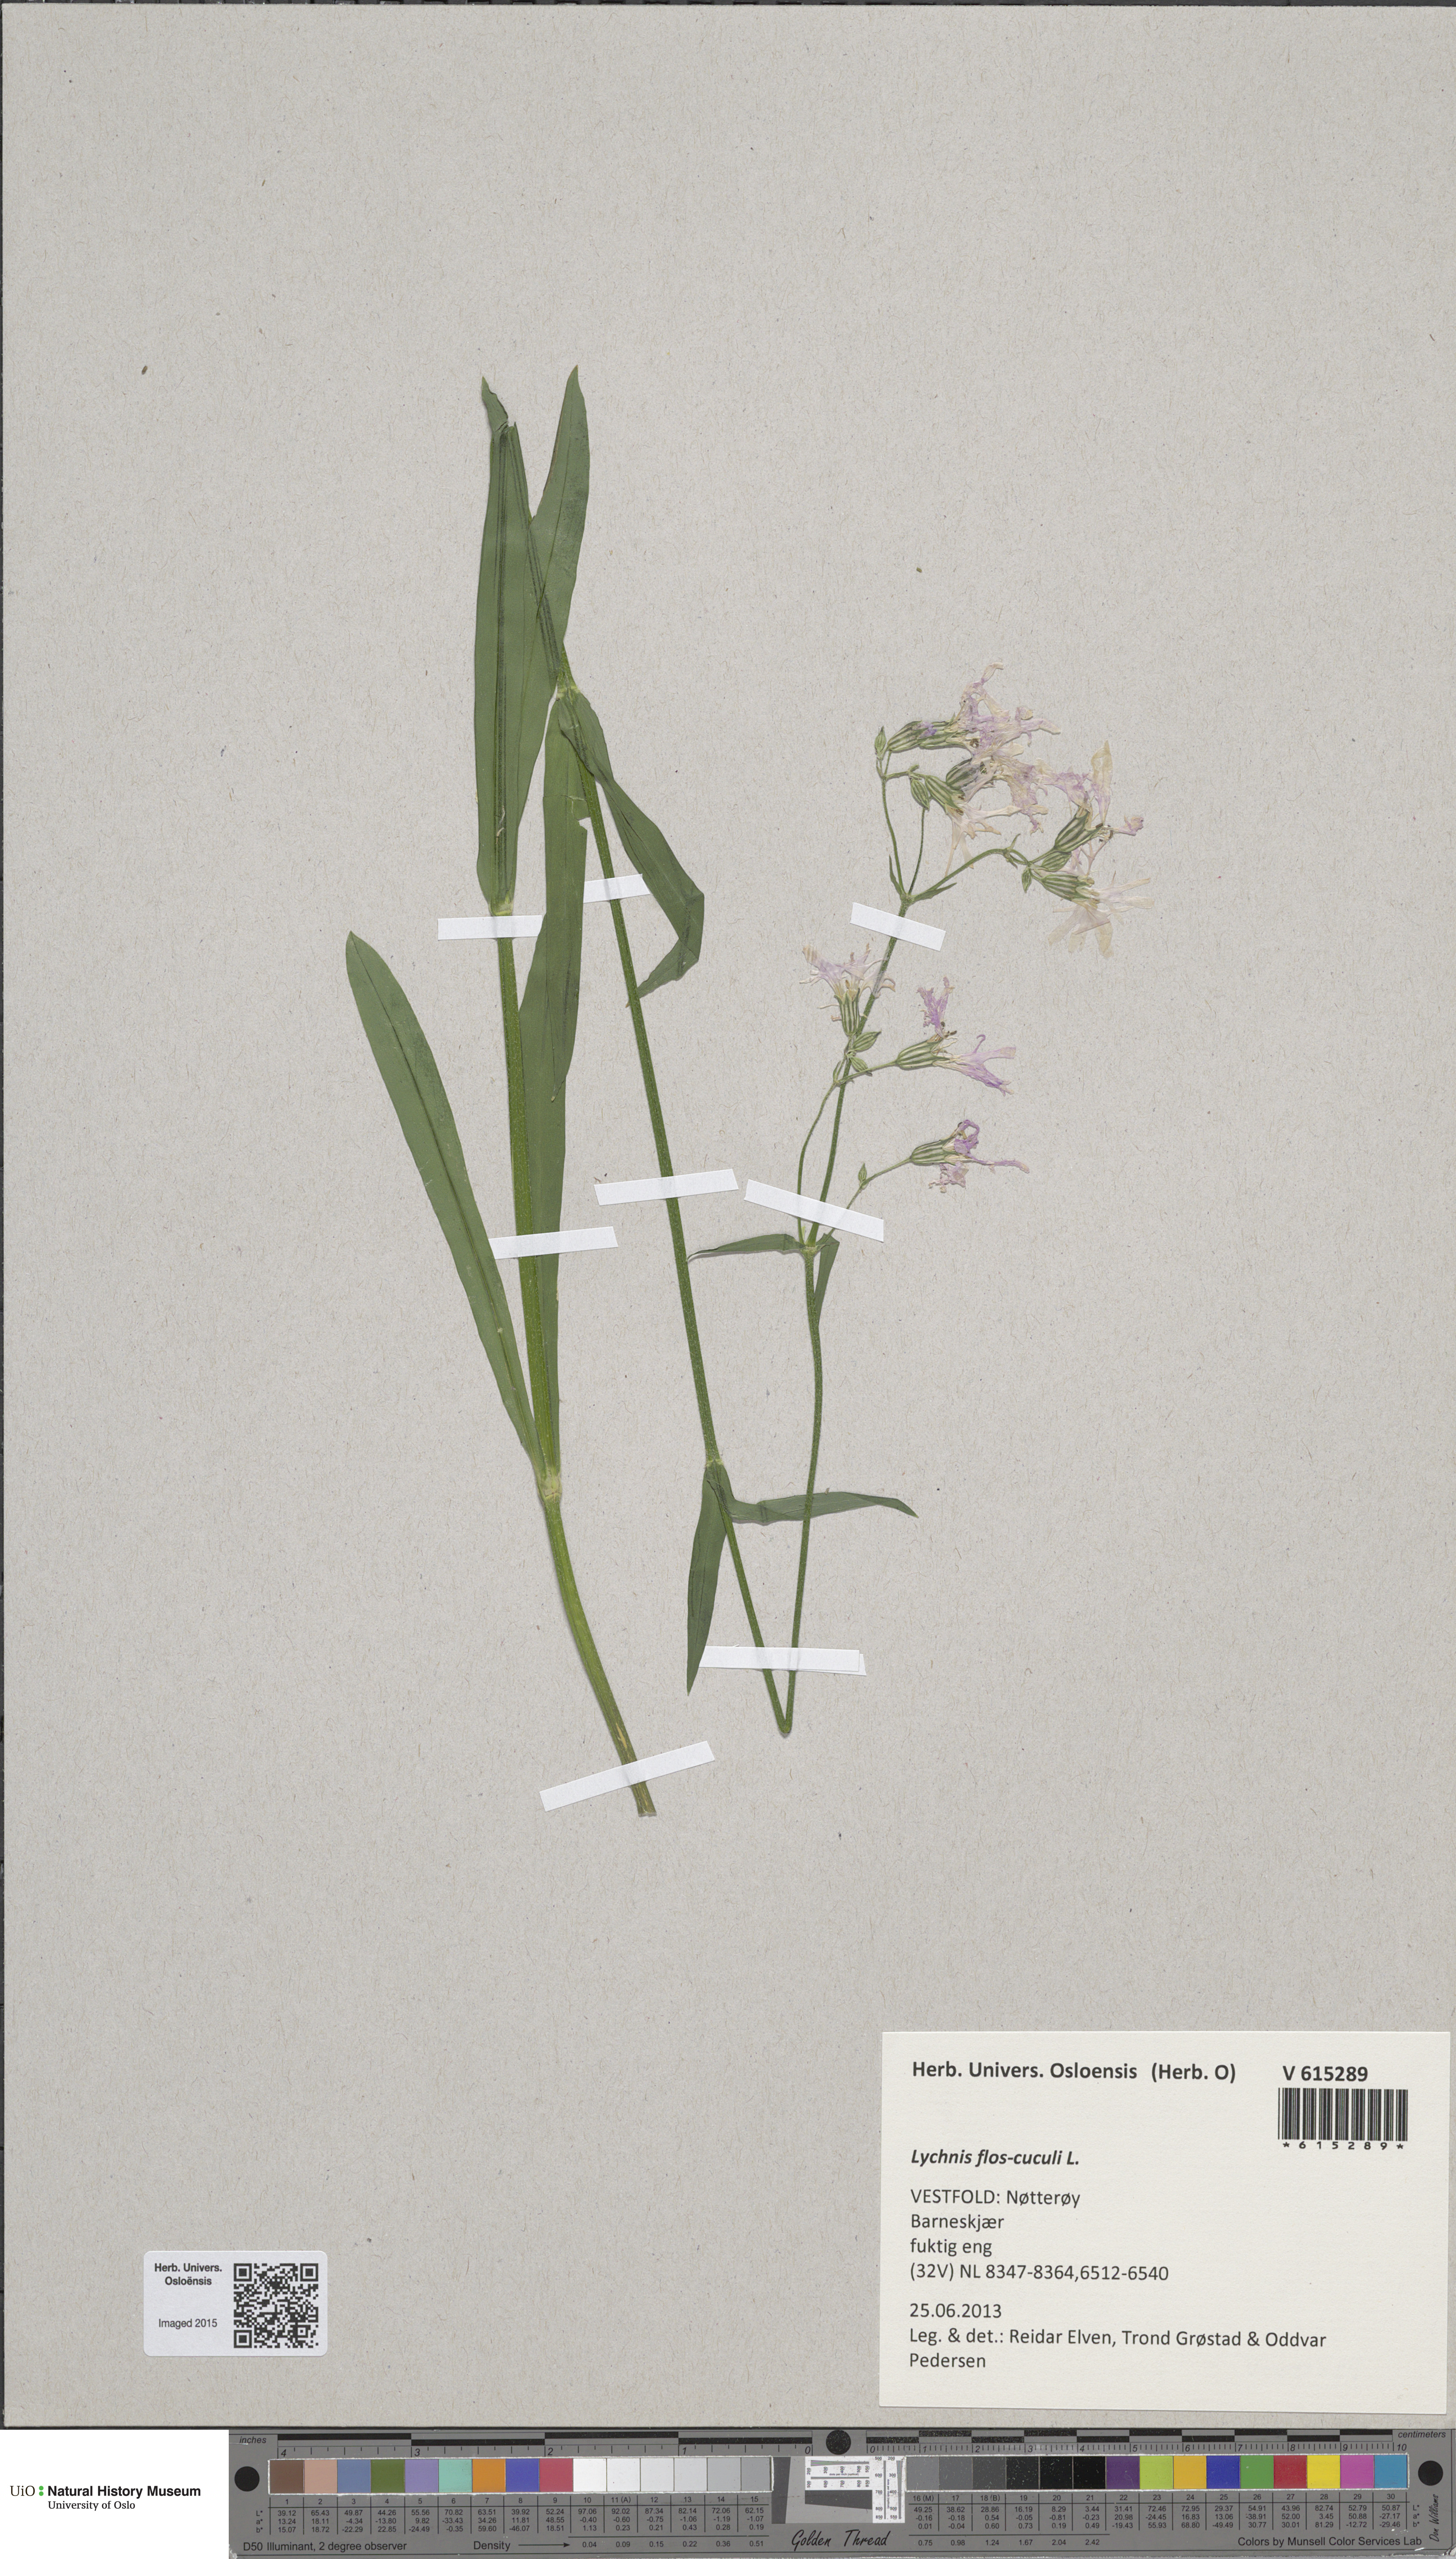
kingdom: Plantae
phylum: Tracheophyta
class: Magnoliopsida
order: Caryophyllales
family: Caryophyllaceae
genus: Silene
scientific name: Silene flos-cuculi
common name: Ragged-robin
